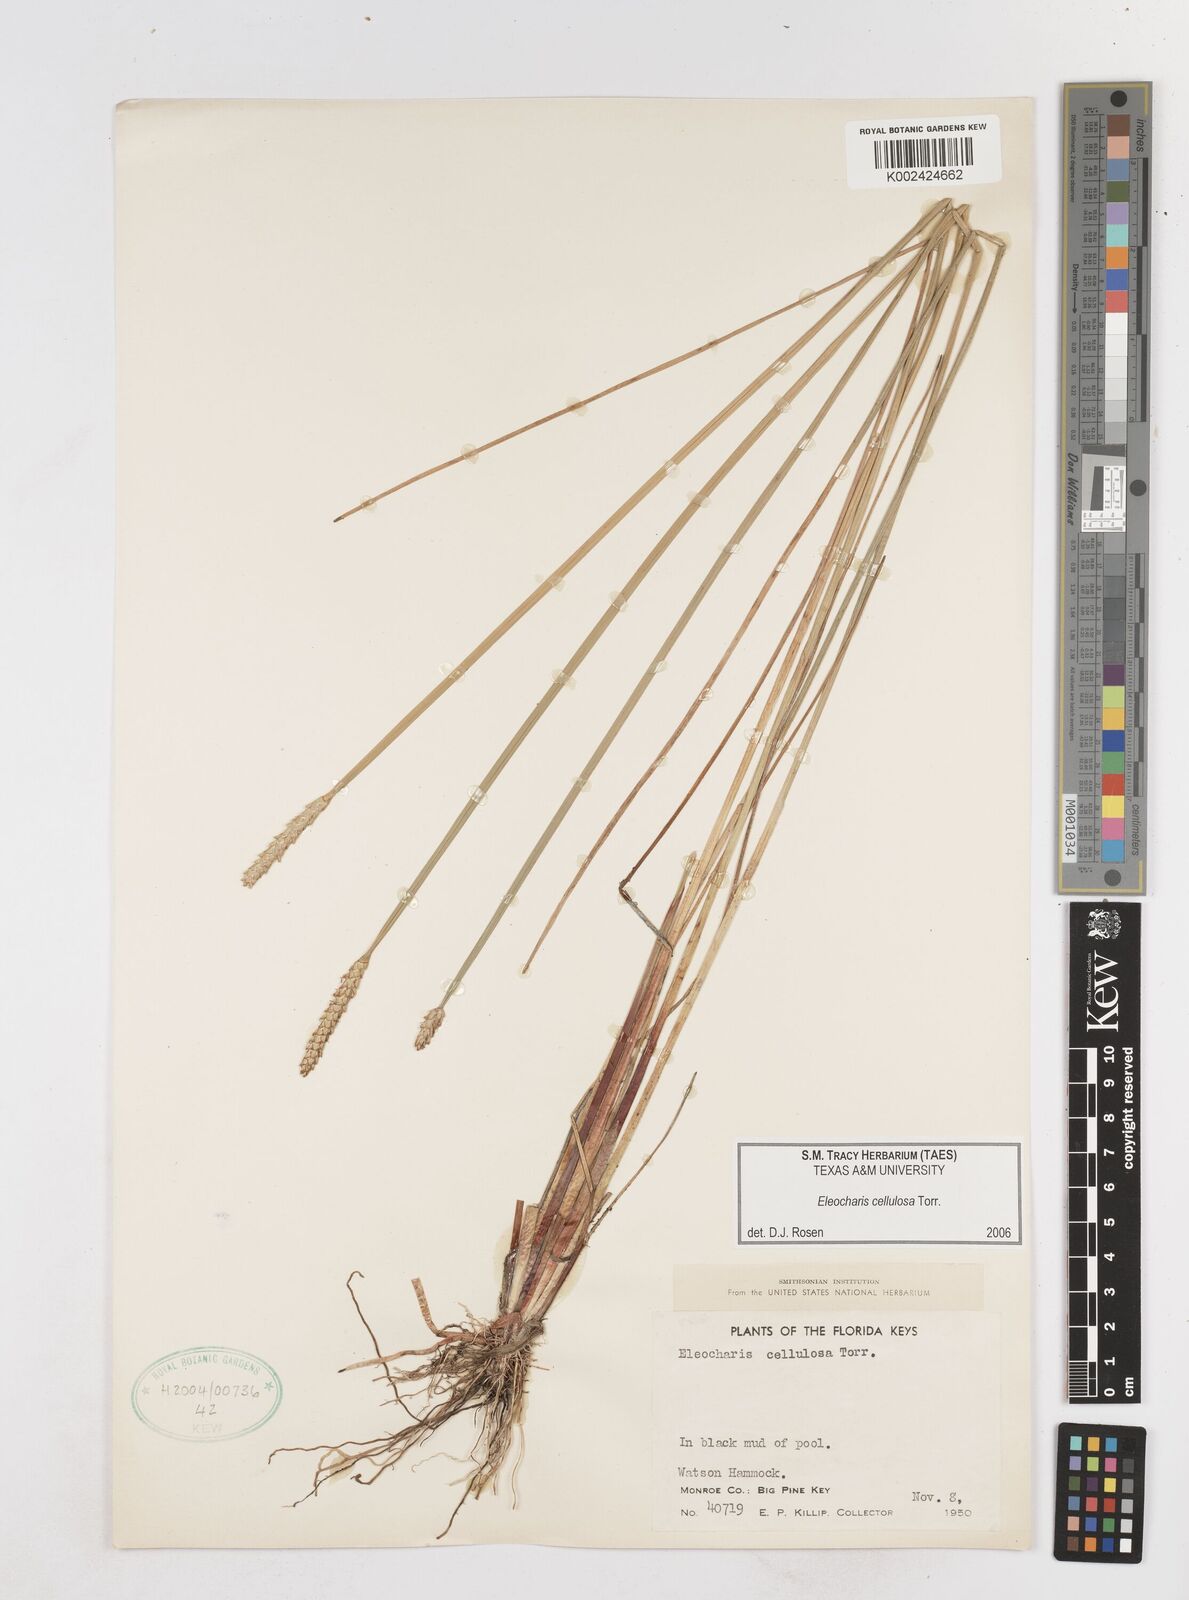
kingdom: Plantae
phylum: Tracheophyta
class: Liliopsida
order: Poales
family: Cyperaceae
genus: Eleocharis
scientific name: Eleocharis cellulosa
